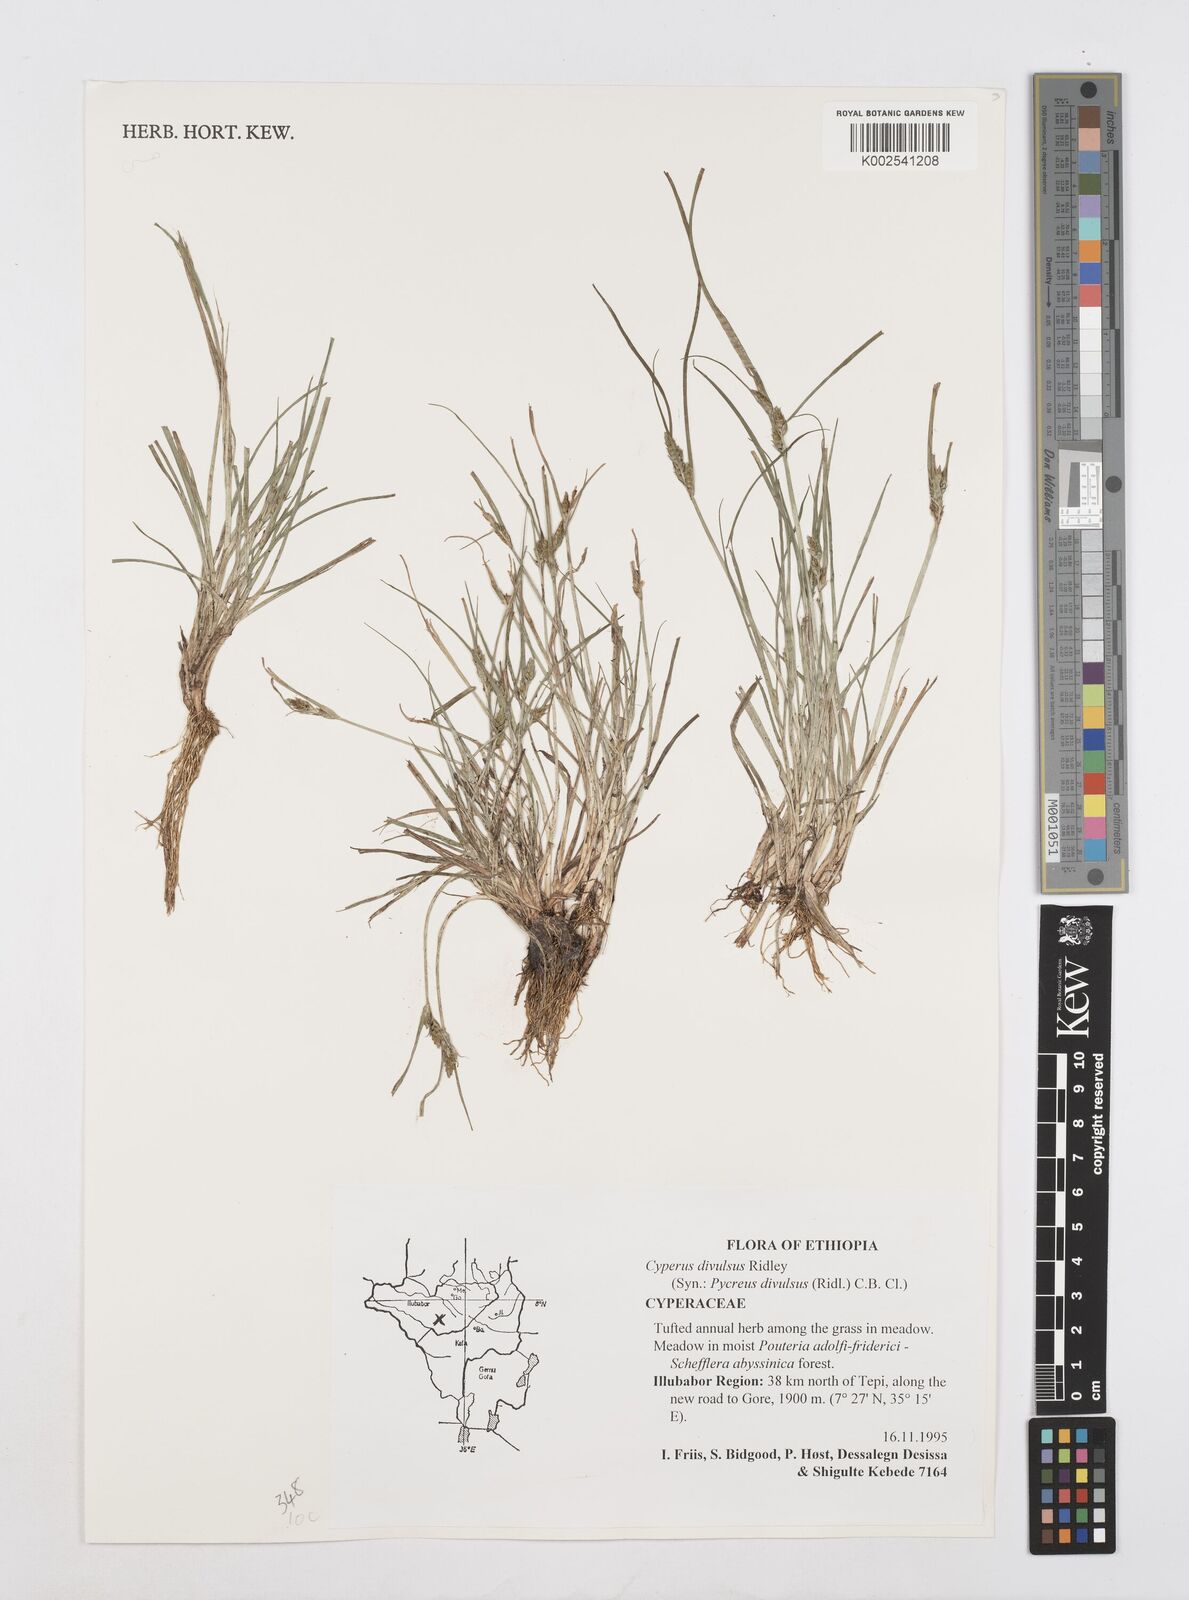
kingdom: Plantae
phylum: Tracheophyta
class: Liliopsida
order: Poales
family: Cyperaceae
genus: Cyperus
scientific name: Cyperus divulsus
